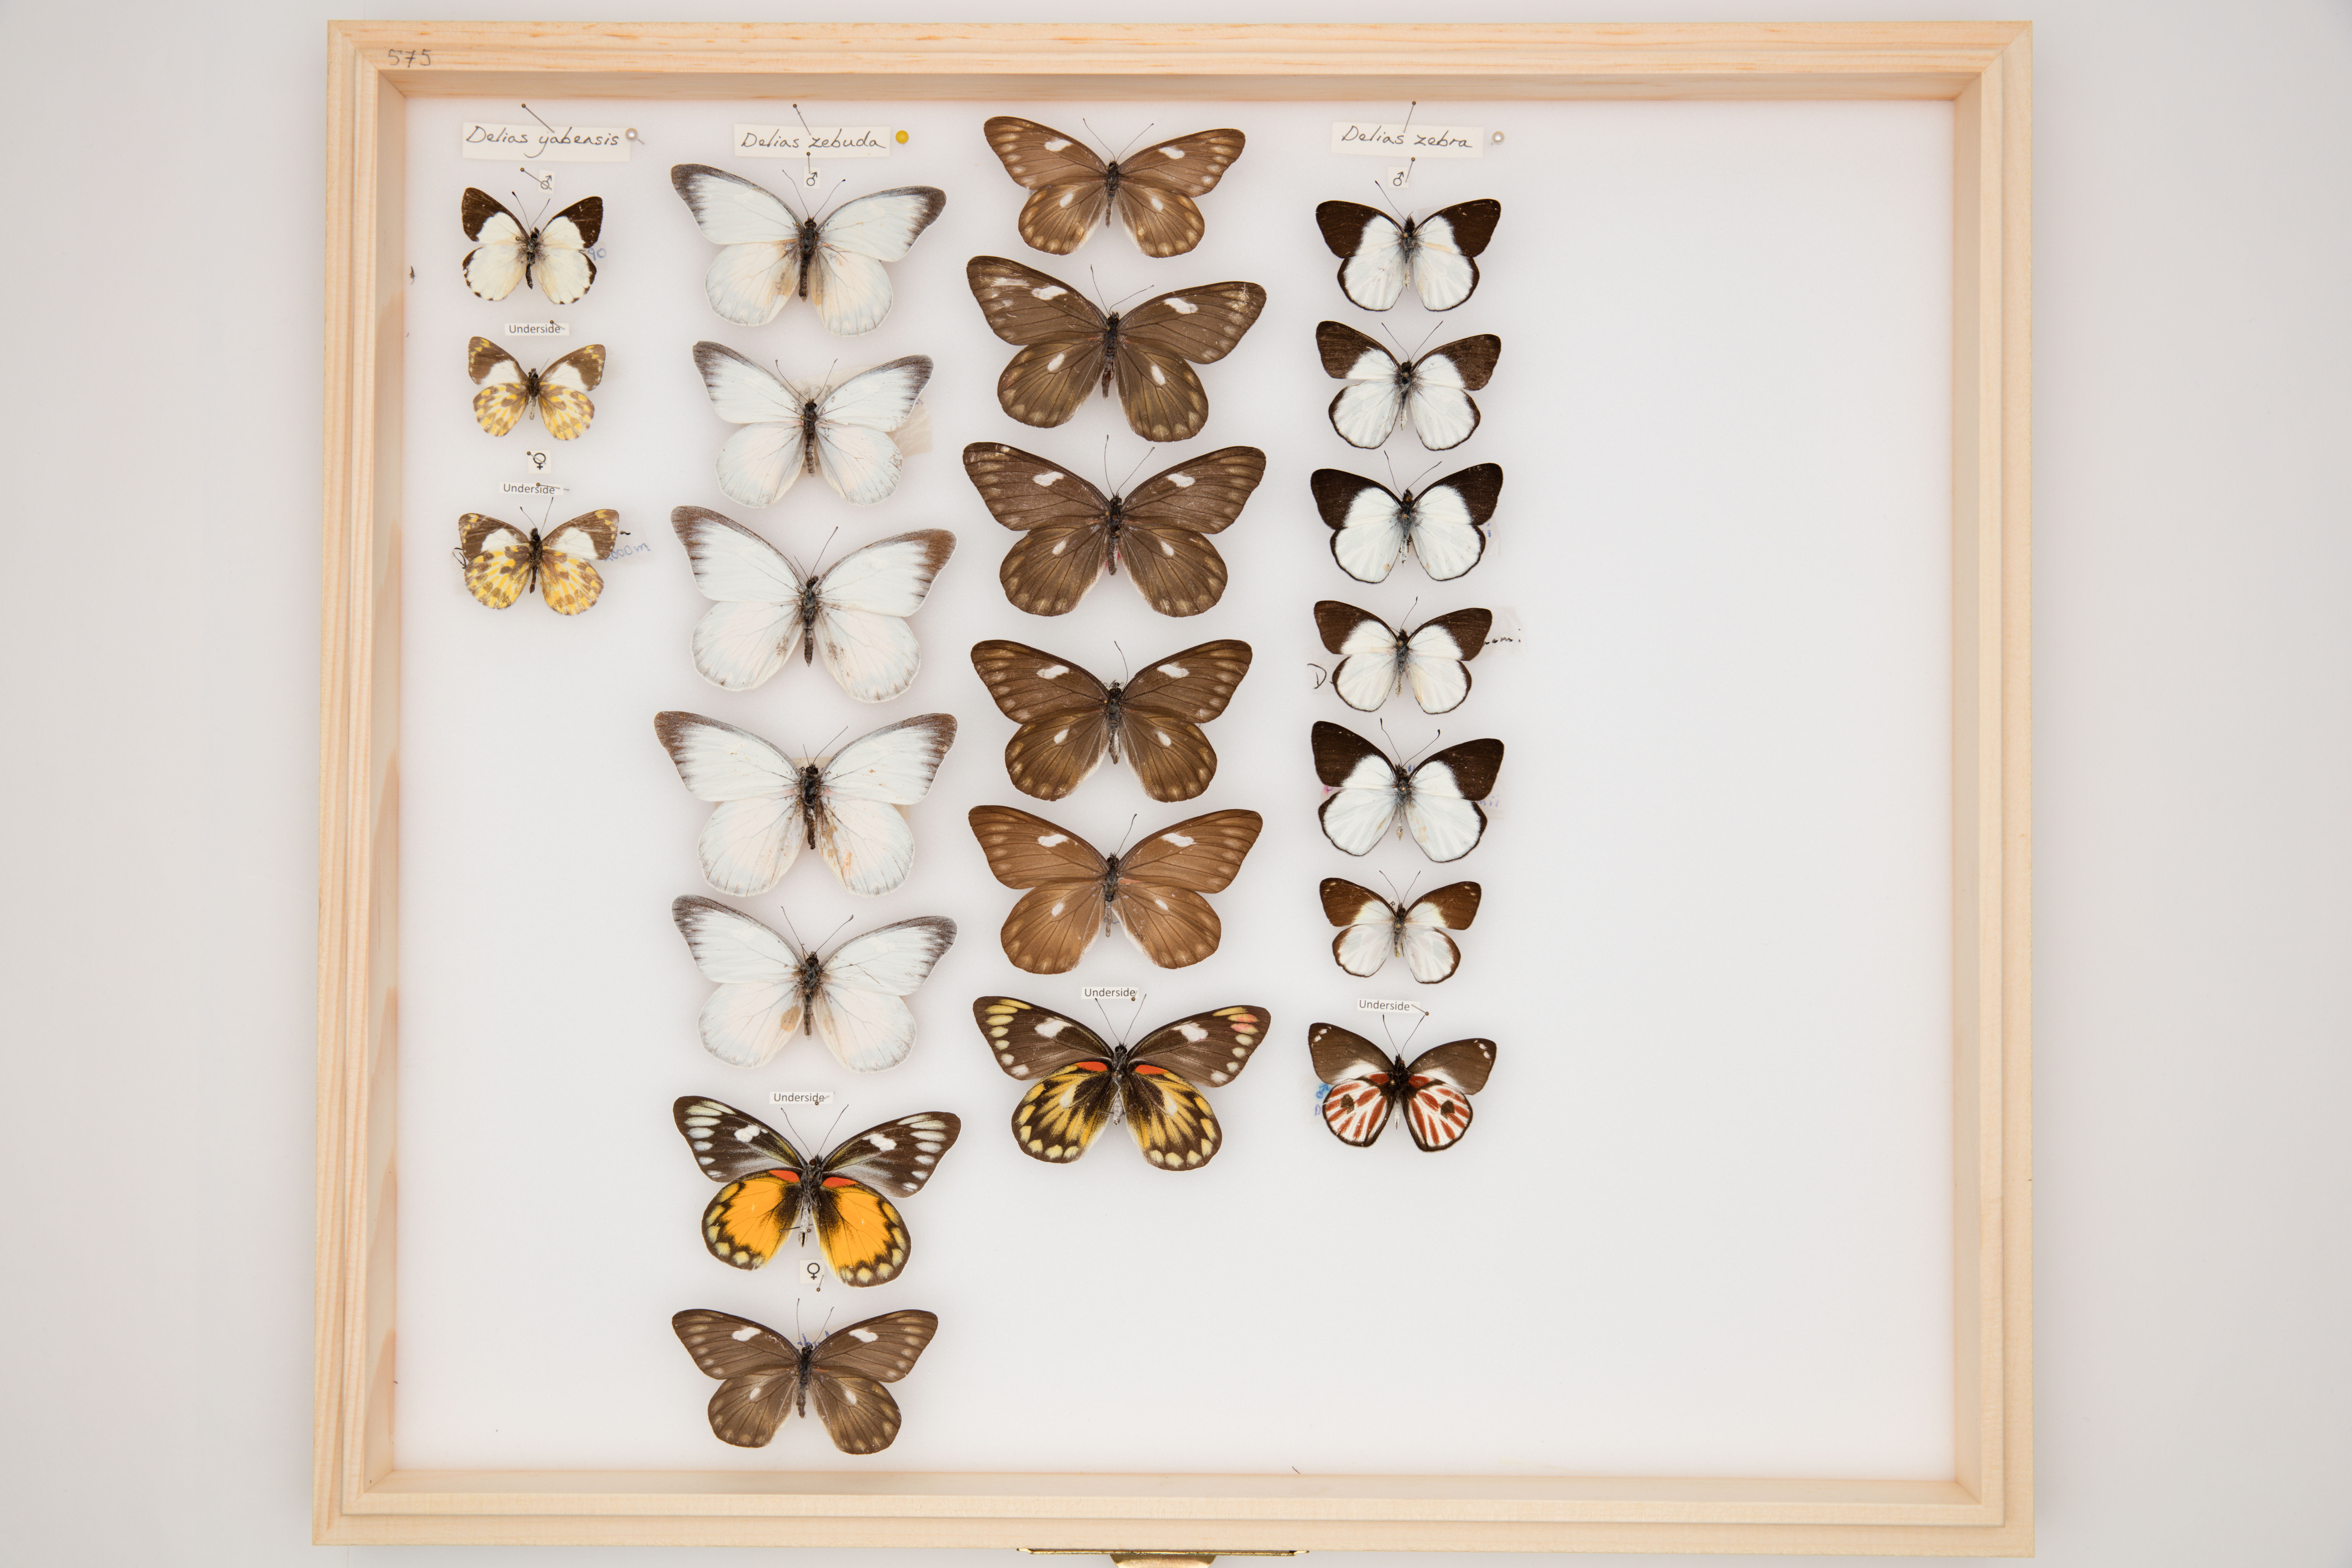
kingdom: Animalia
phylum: Arthropoda
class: Insecta
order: Lepidoptera
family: Pieridae
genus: Delias
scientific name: Delias zebra
